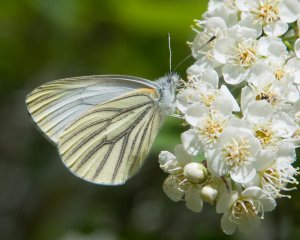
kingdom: Animalia
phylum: Arthropoda
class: Insecta
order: Lepidoptera
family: Pieridae
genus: Pieris
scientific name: Pieris oleracea
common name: Mustard White
